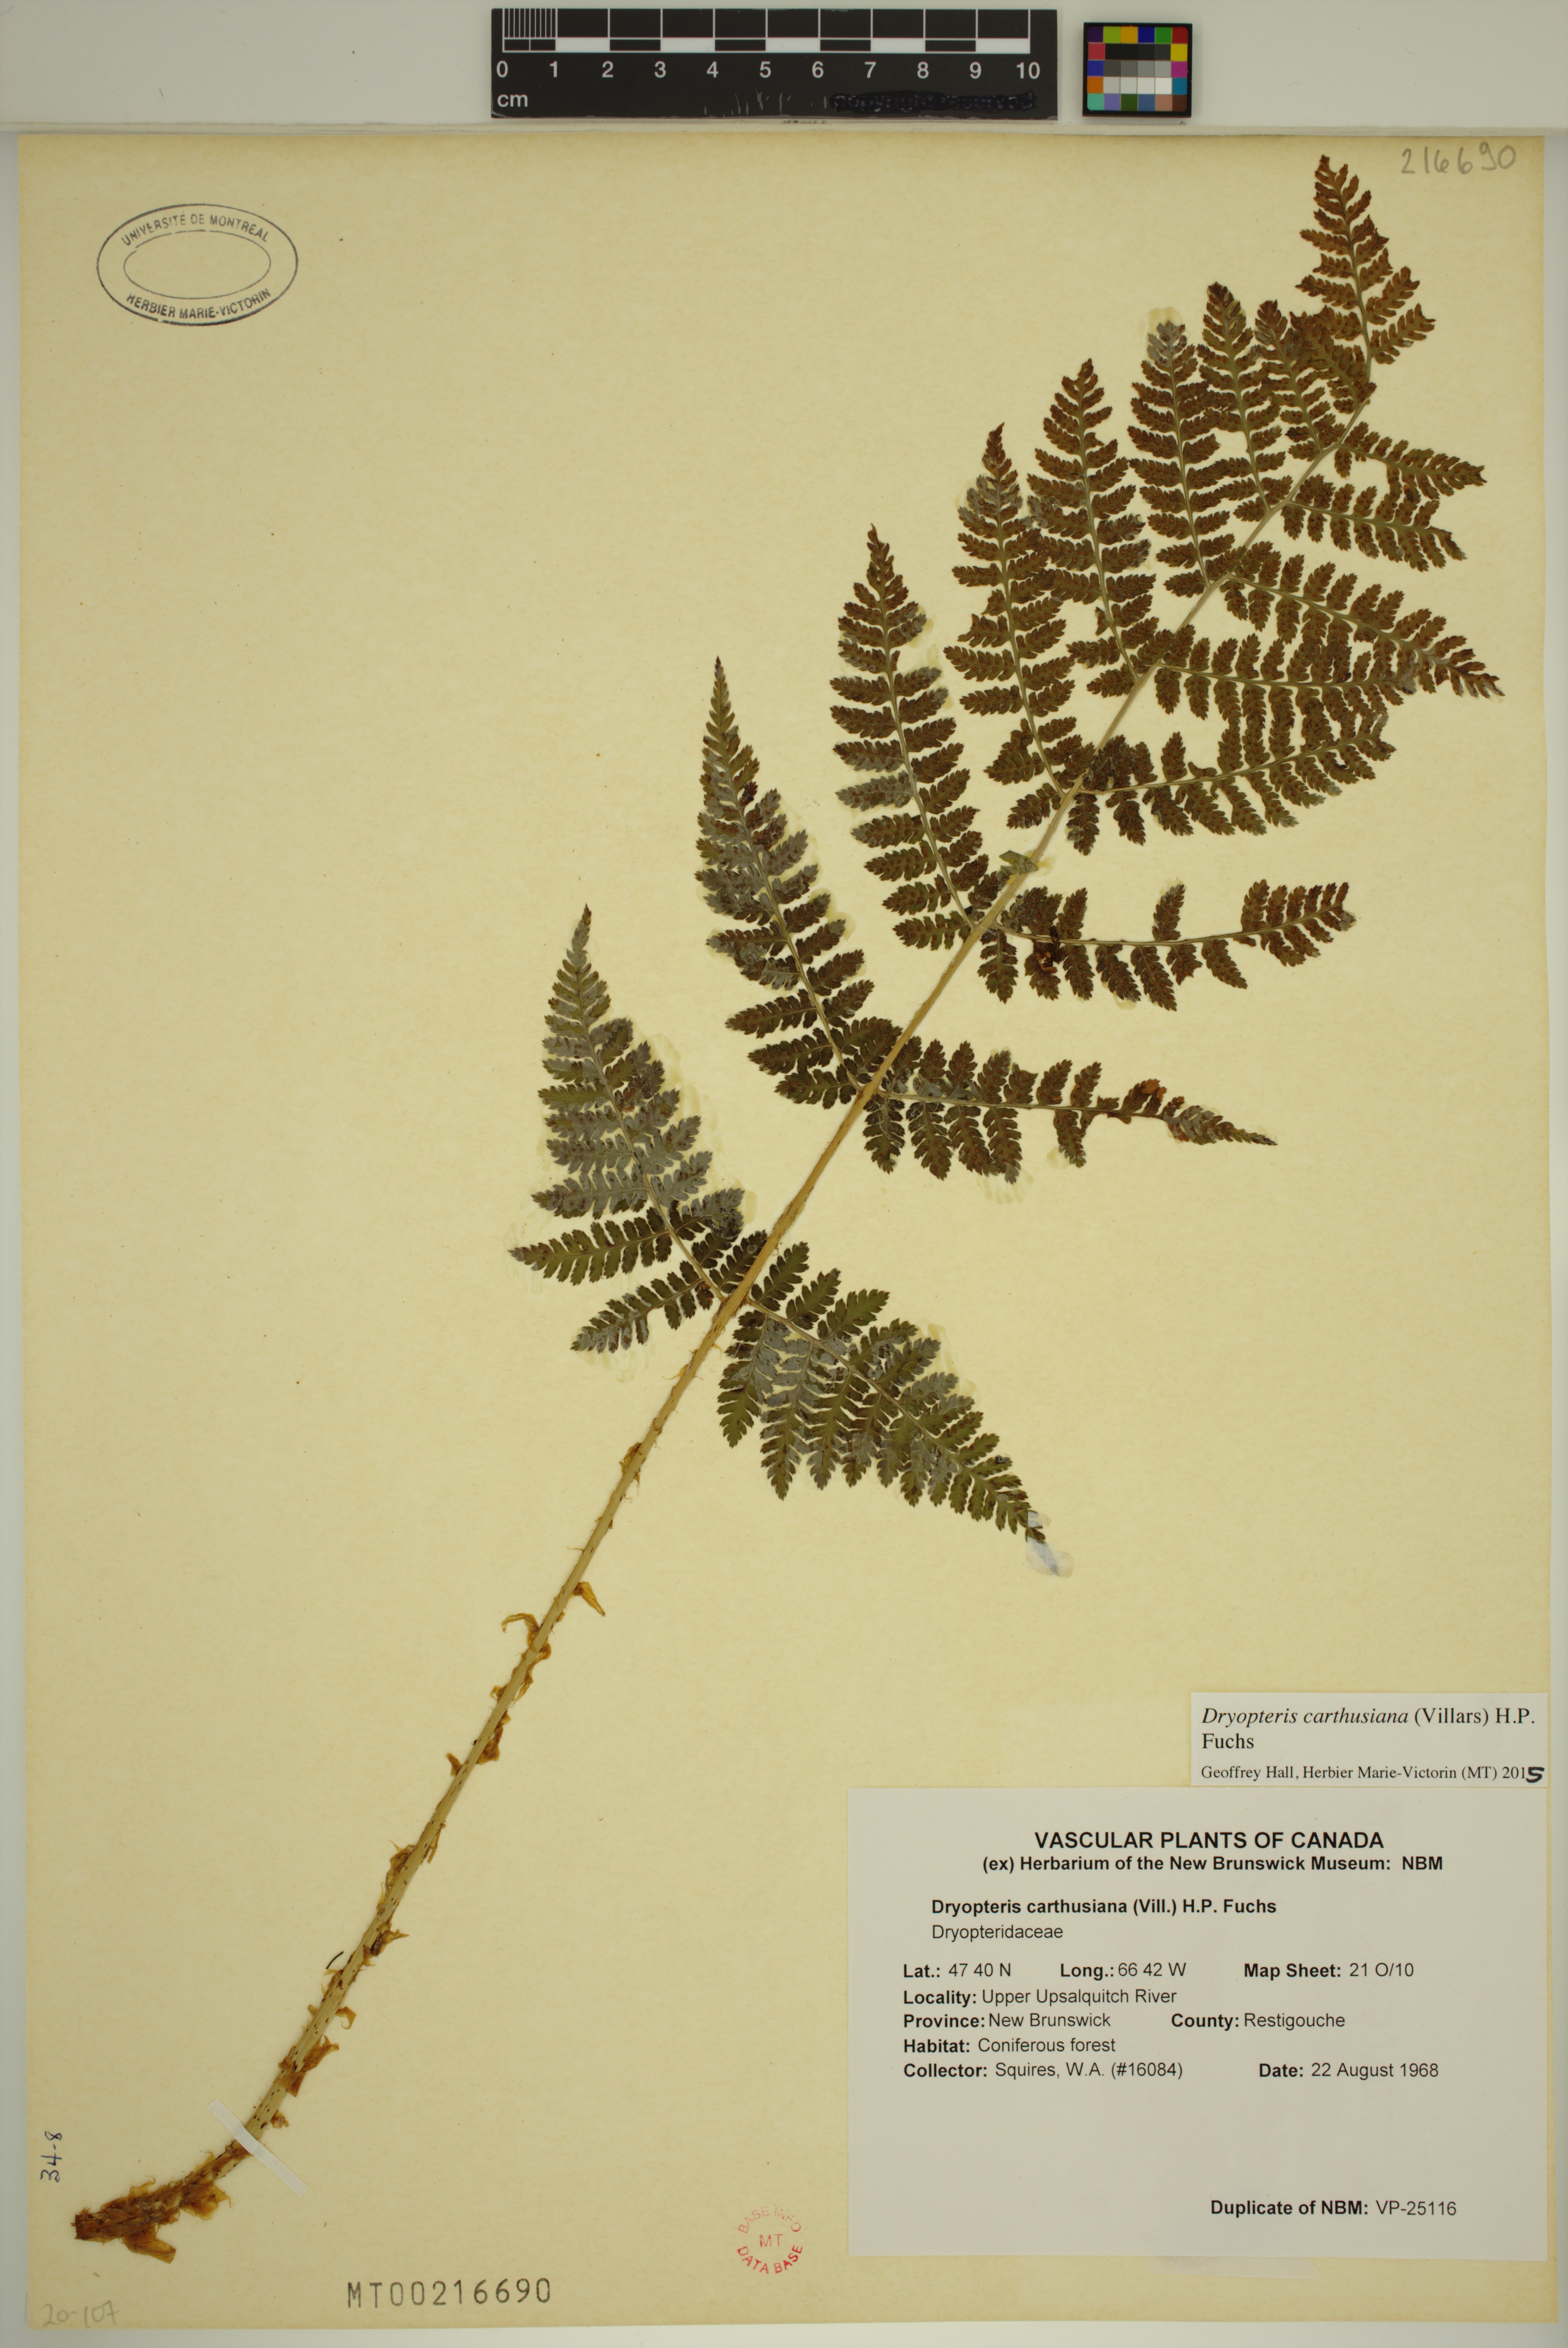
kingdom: Plantae
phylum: Tracheophyta
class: Polypodiopsida
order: Polypodiales
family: Dryopteridaceae
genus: Dryopteris
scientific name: Dryopteris carthusiana
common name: Narrow buckler-fern
